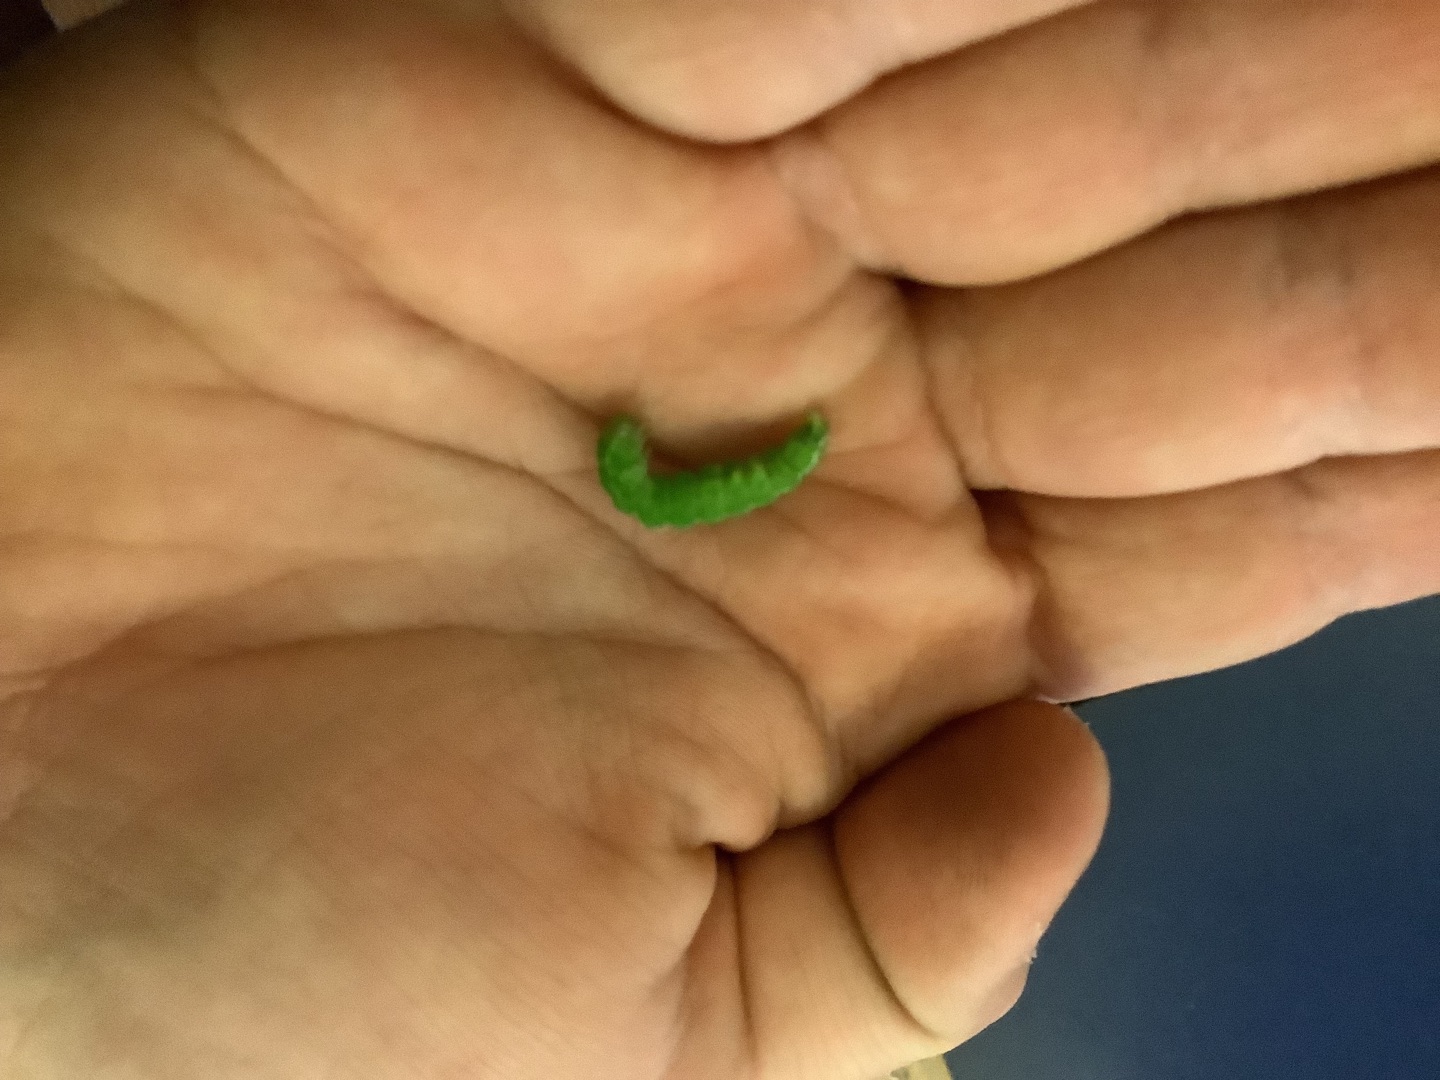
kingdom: Animalia
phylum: Arthropoda
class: Insecta
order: Lepidoptera
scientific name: Lepidoptera
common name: Sommerfugle
